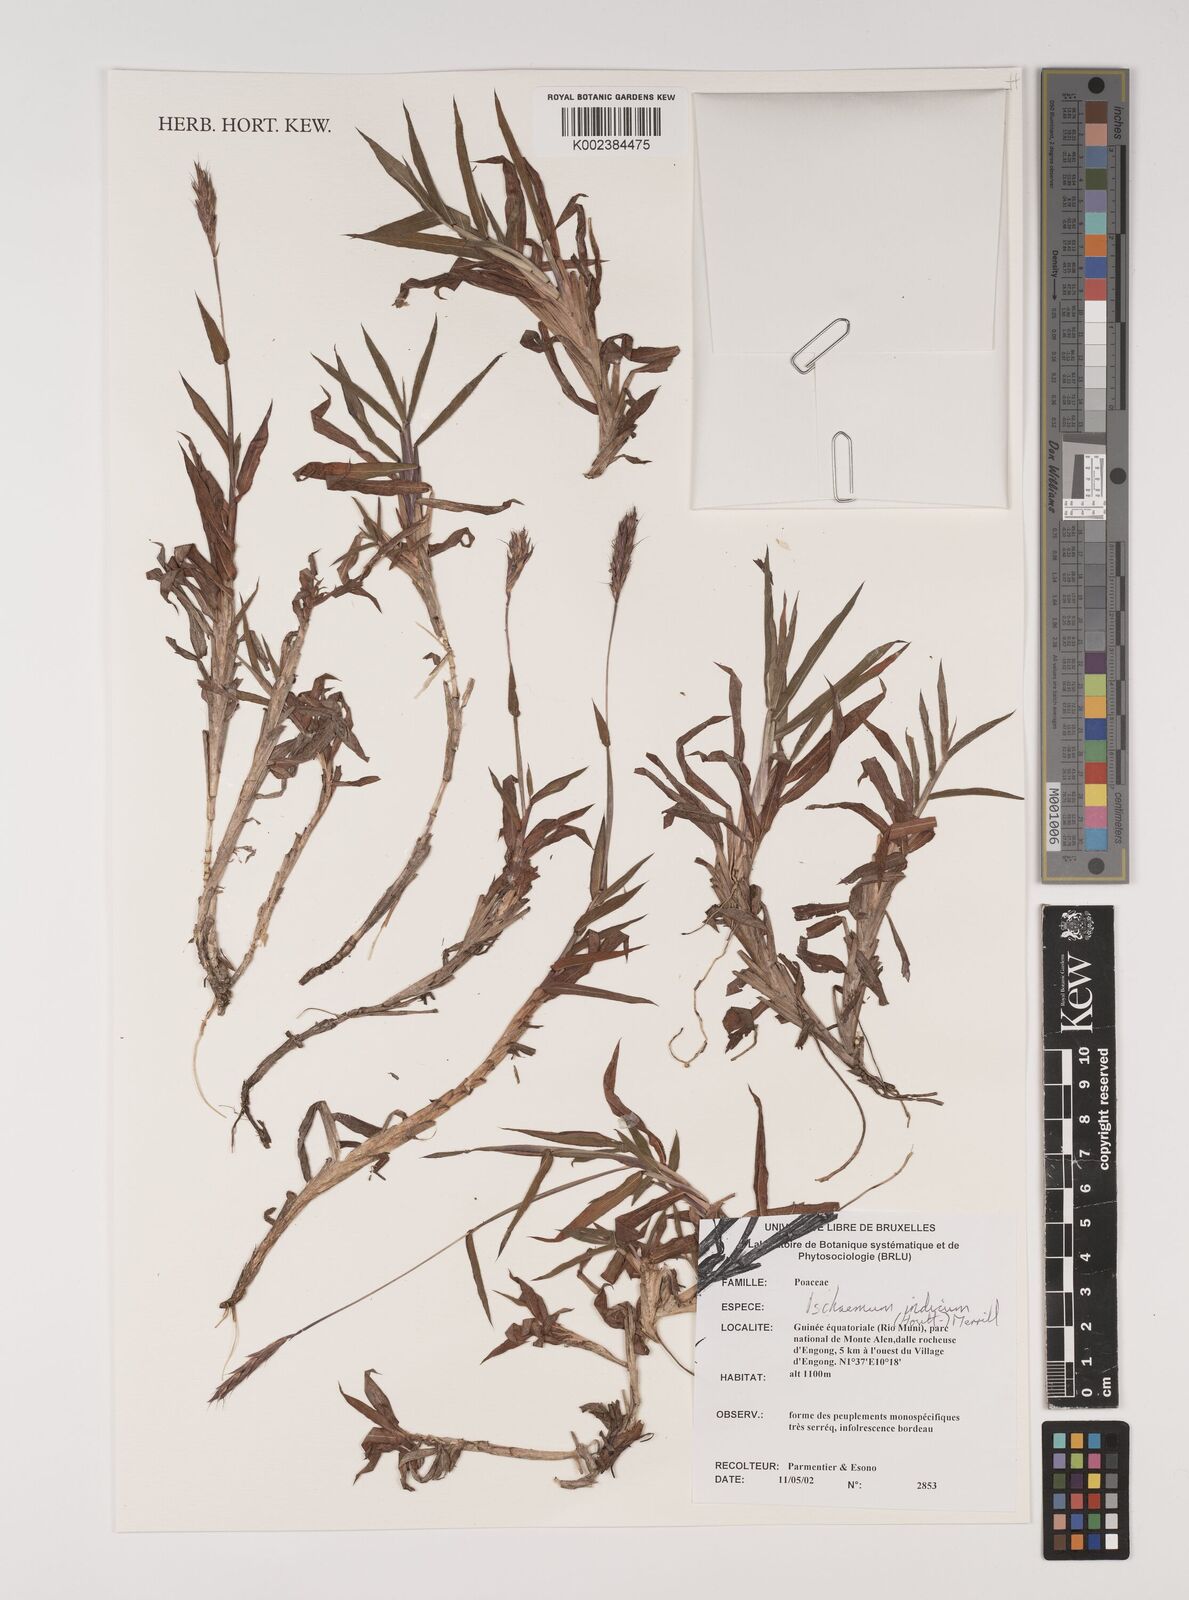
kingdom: Plantae
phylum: Tracheophyta
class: Liliopsida
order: Poales
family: Poaceae
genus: Polytrias
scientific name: Polytrias indica
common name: Indian murainagrass
